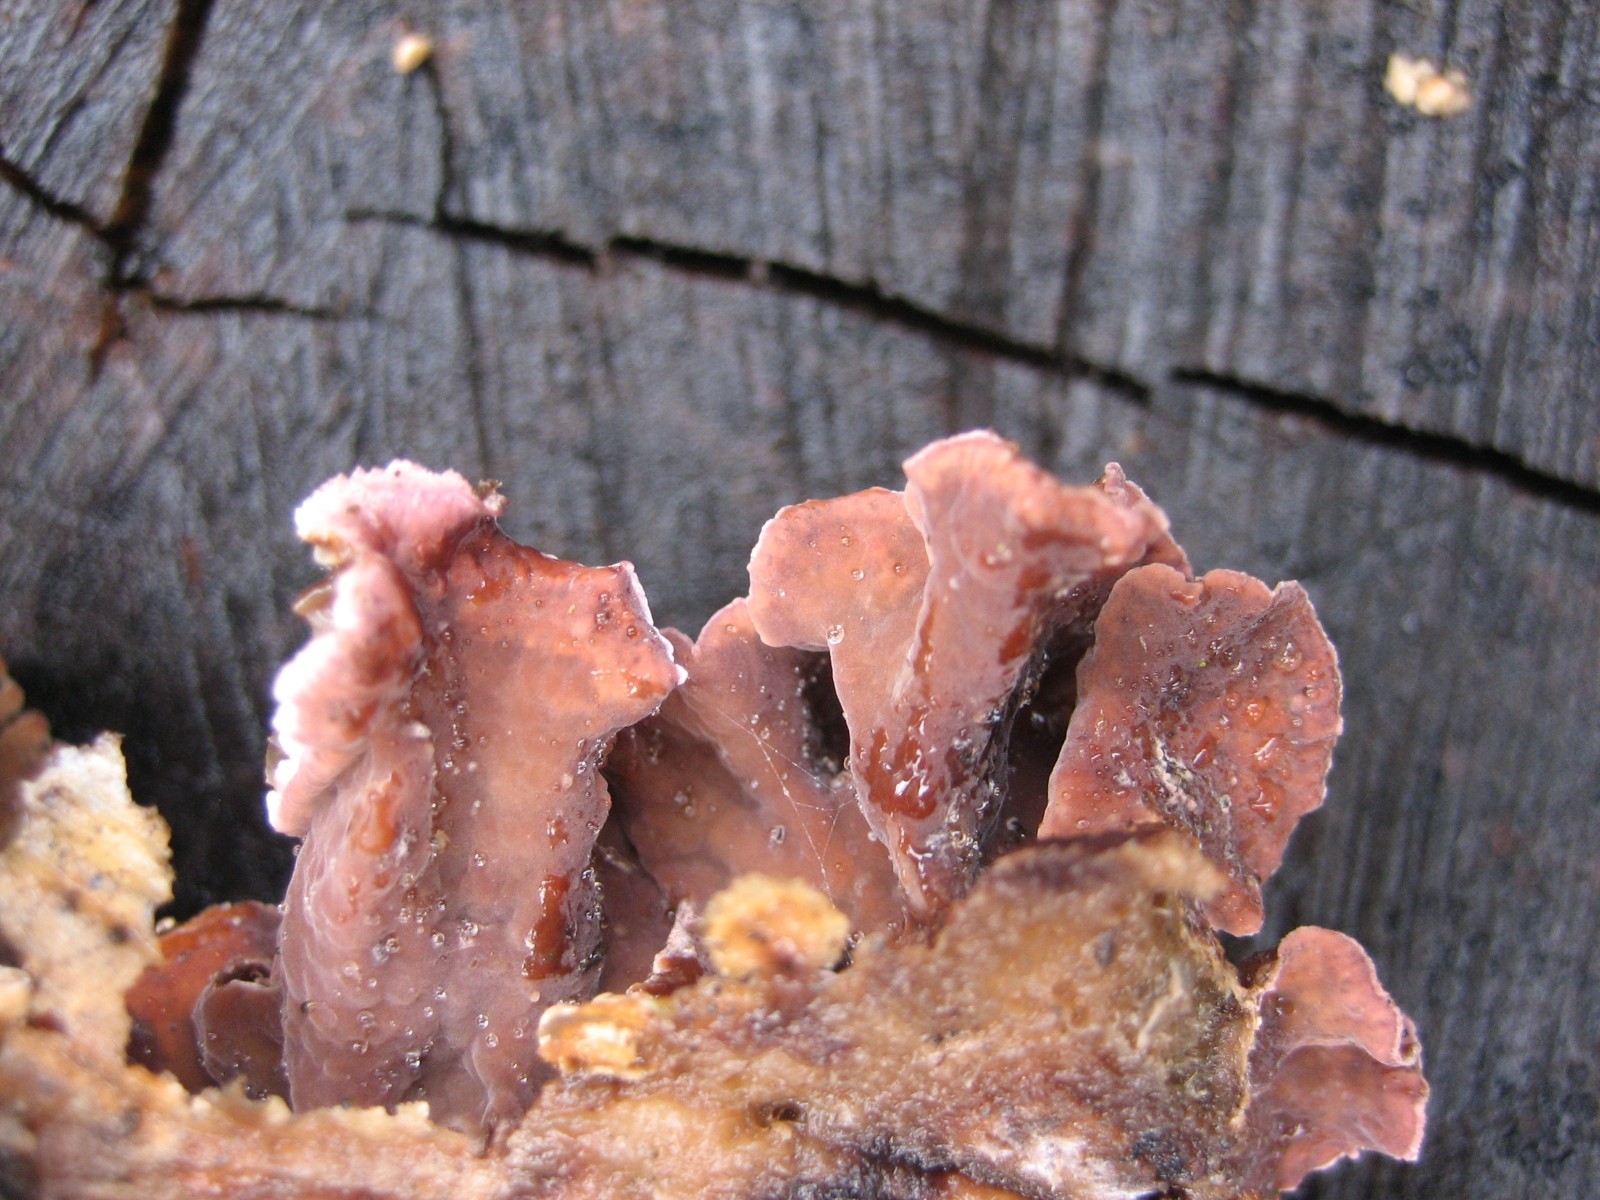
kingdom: Fungi
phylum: Basidiomycota
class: Agaricomycetes
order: Agaricales
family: Cyphellaceae
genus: Chondrostereum
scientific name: Chondrostereum purpureum
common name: purpurlædersvamp
